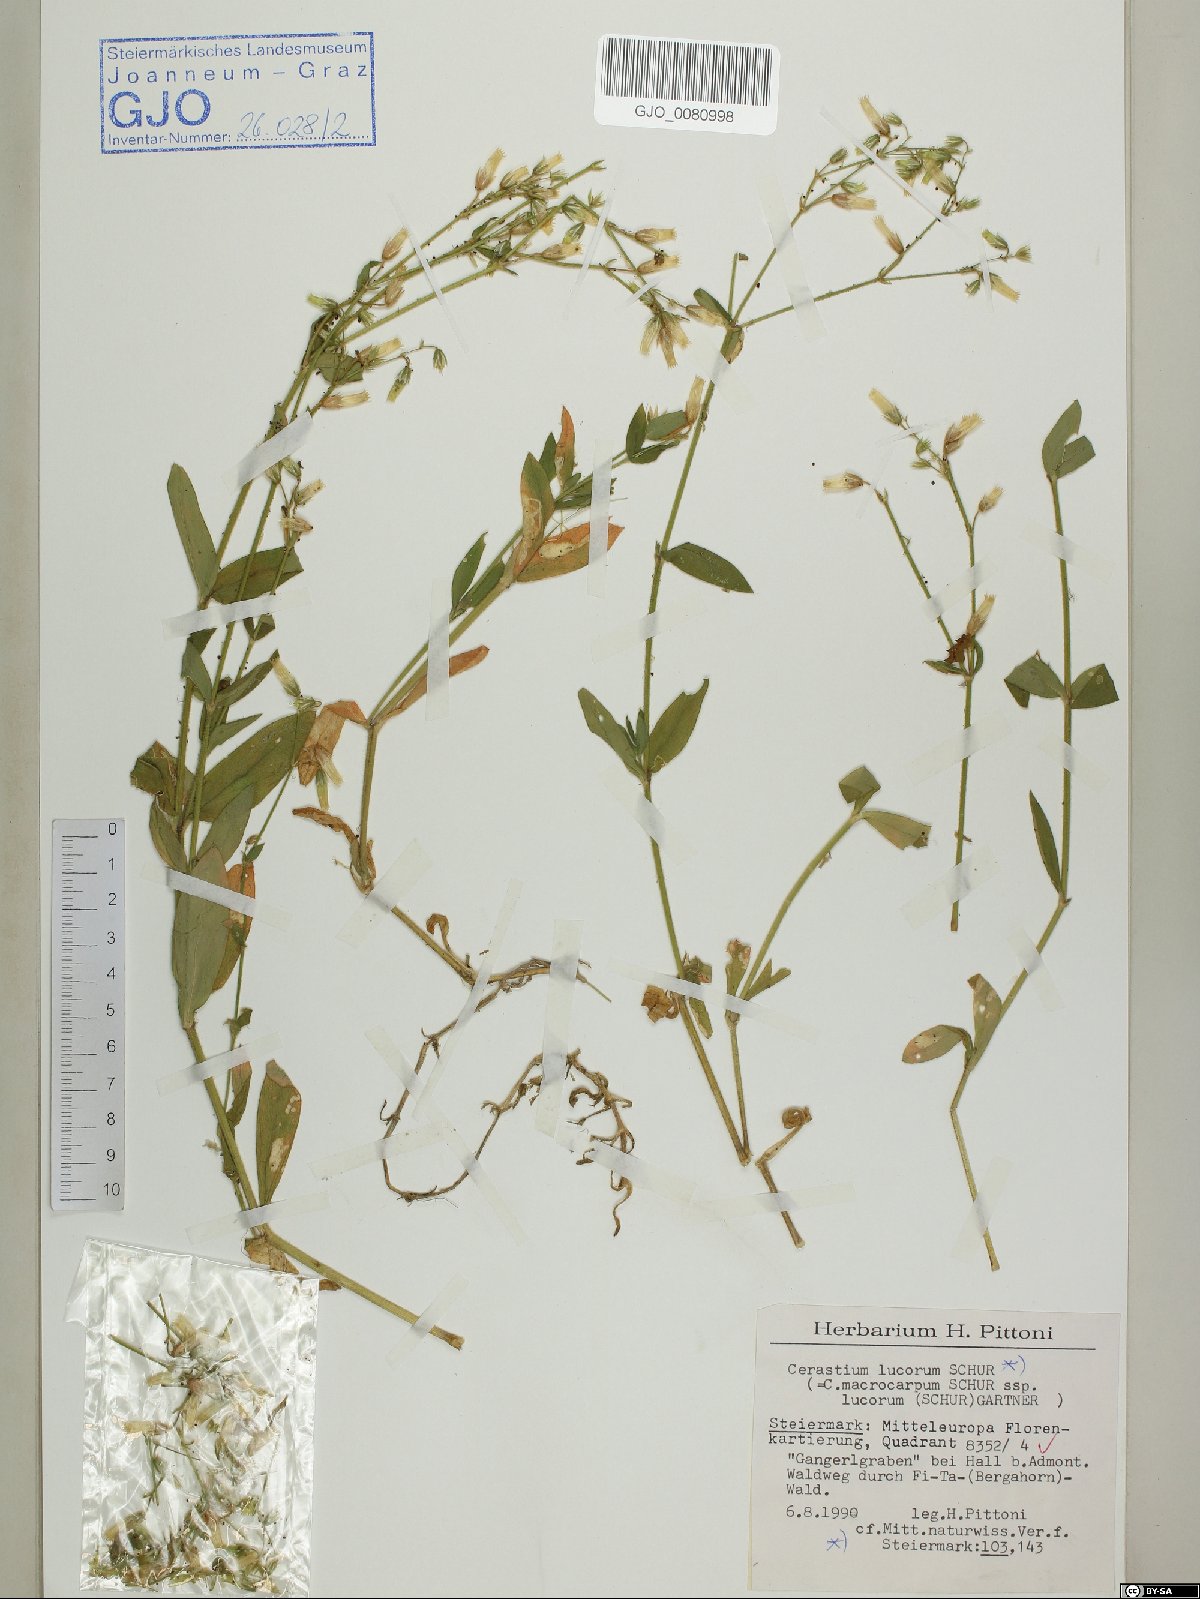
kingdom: Plantae
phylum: Tracheophyta
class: Magnoliopsida
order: Caryophyllales
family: Caryophyllaceae
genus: Cerastium
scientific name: Cerastium lucorum
